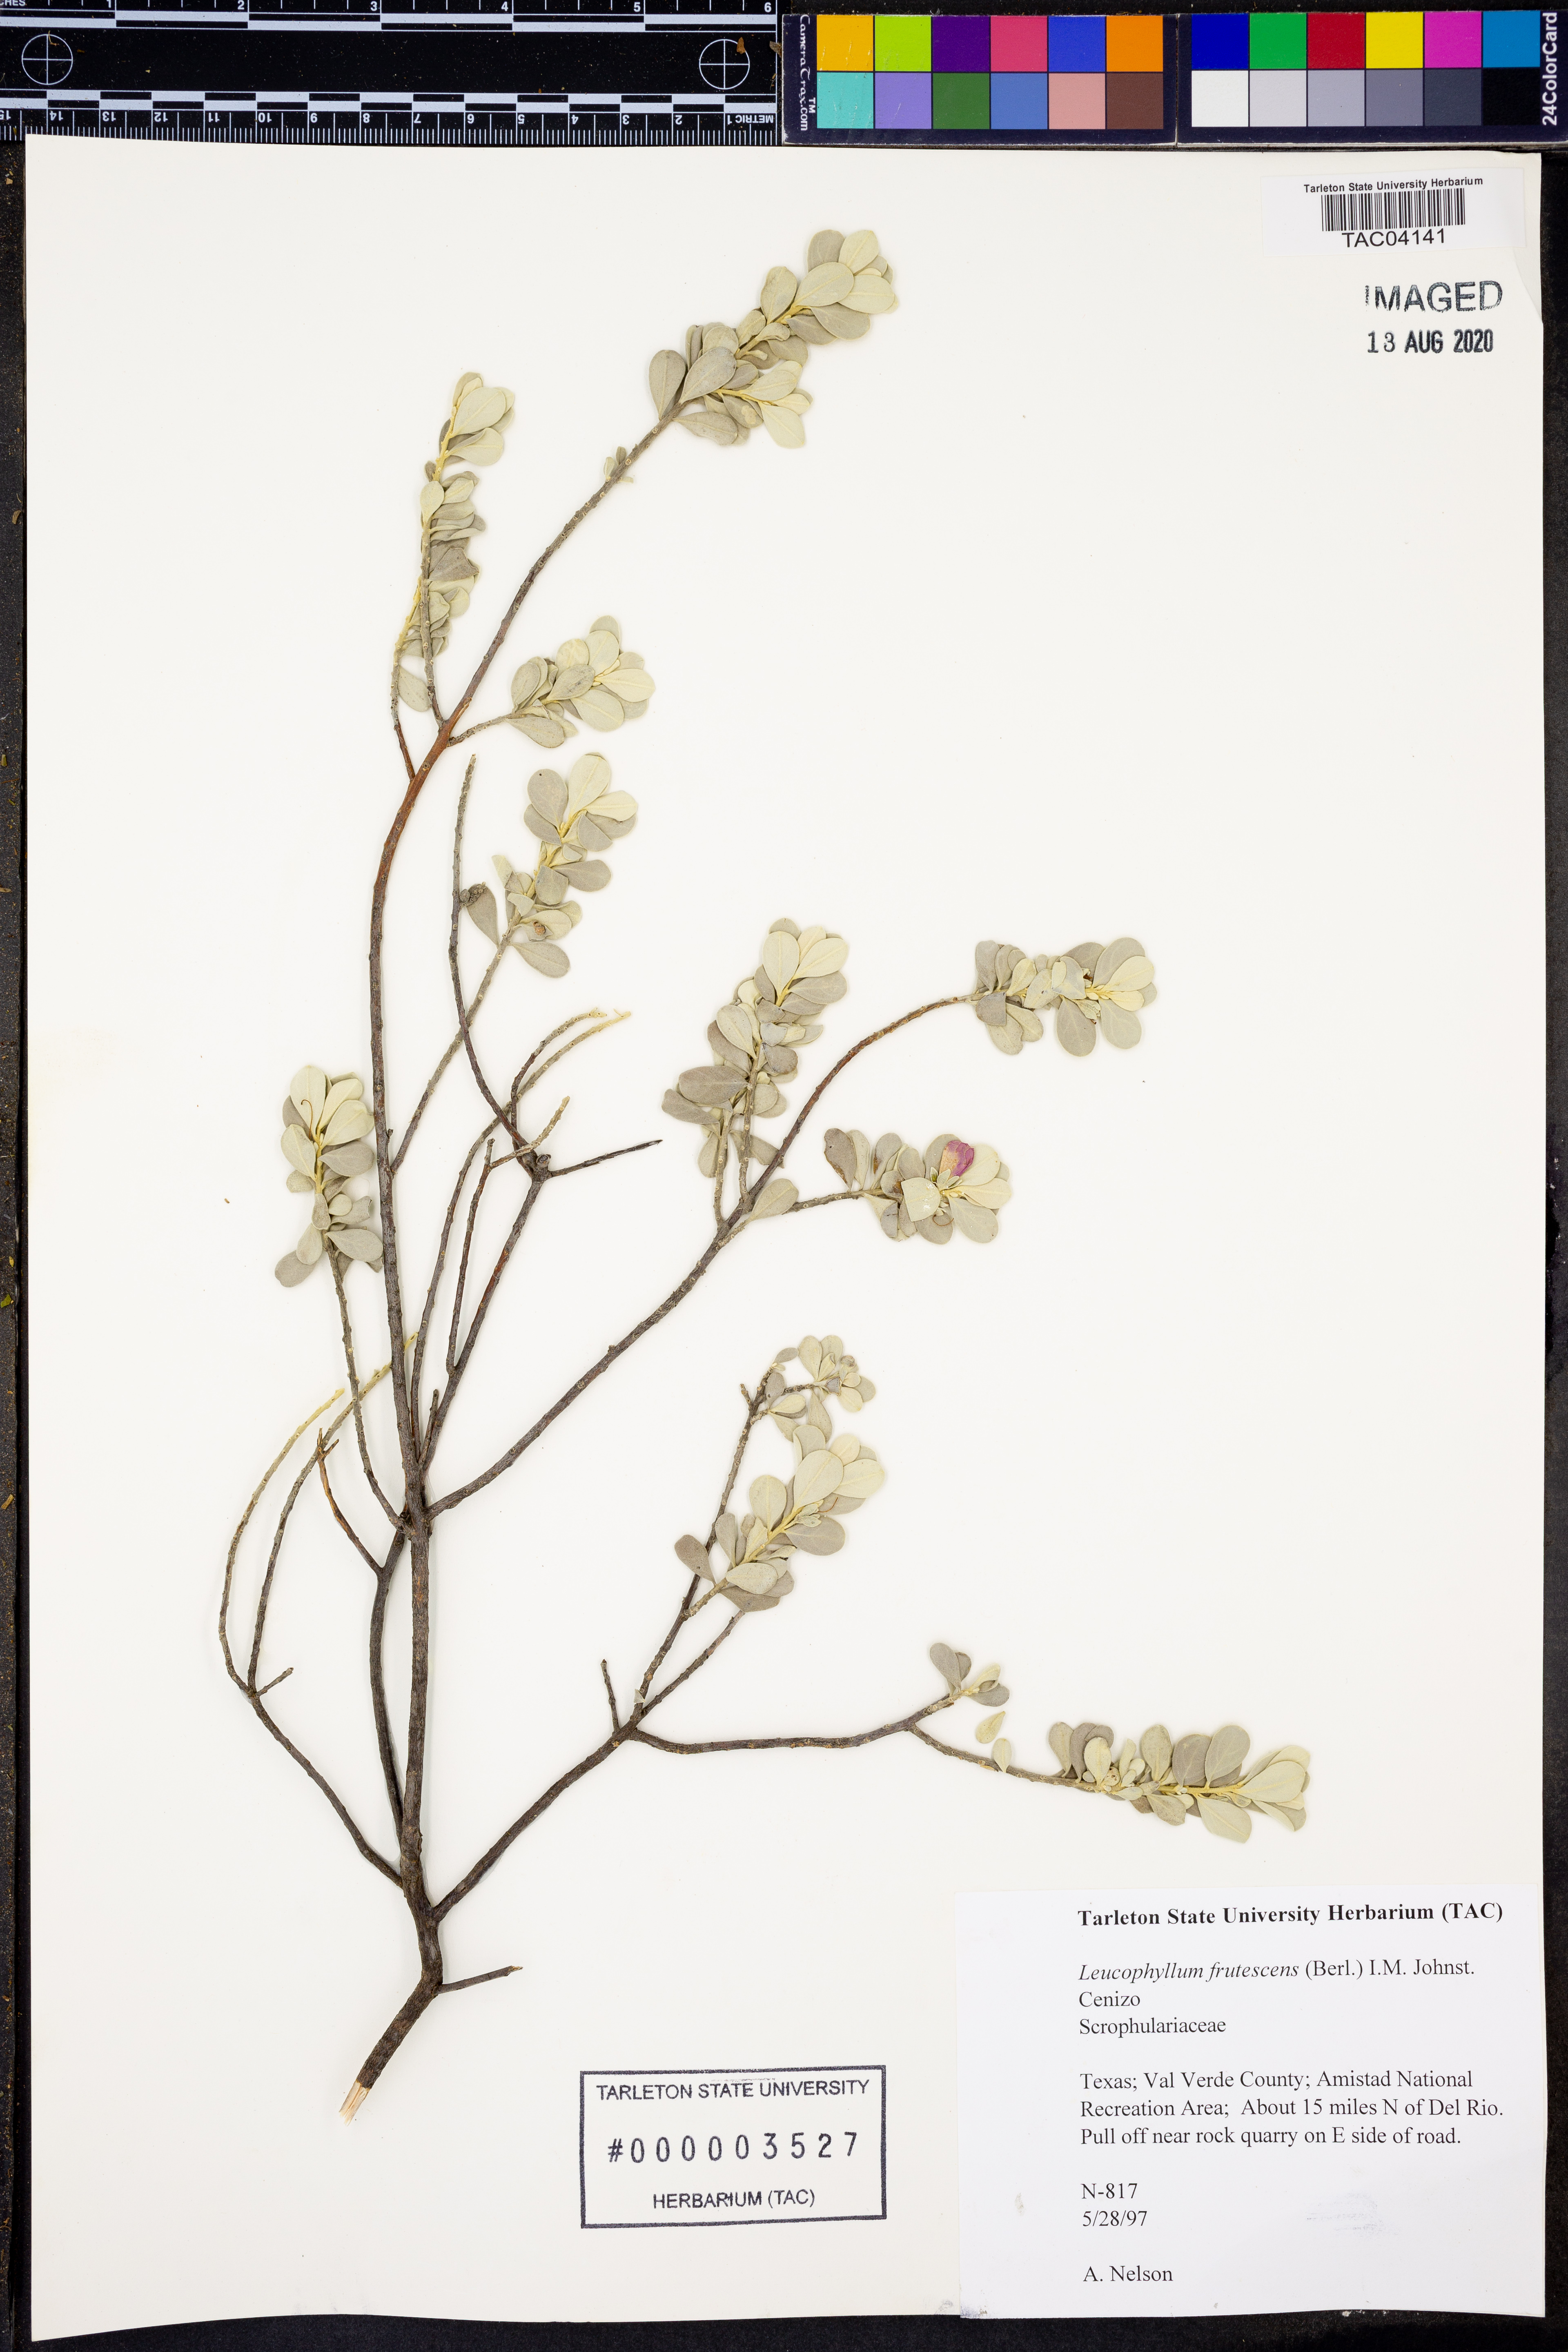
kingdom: Plantae
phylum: Tracheophyta
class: Magnoliopsida
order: Lamiales
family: Scrophulariaceae
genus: Leucophyllum
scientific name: Leucophyllum frutescens
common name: Texas silverleaf
